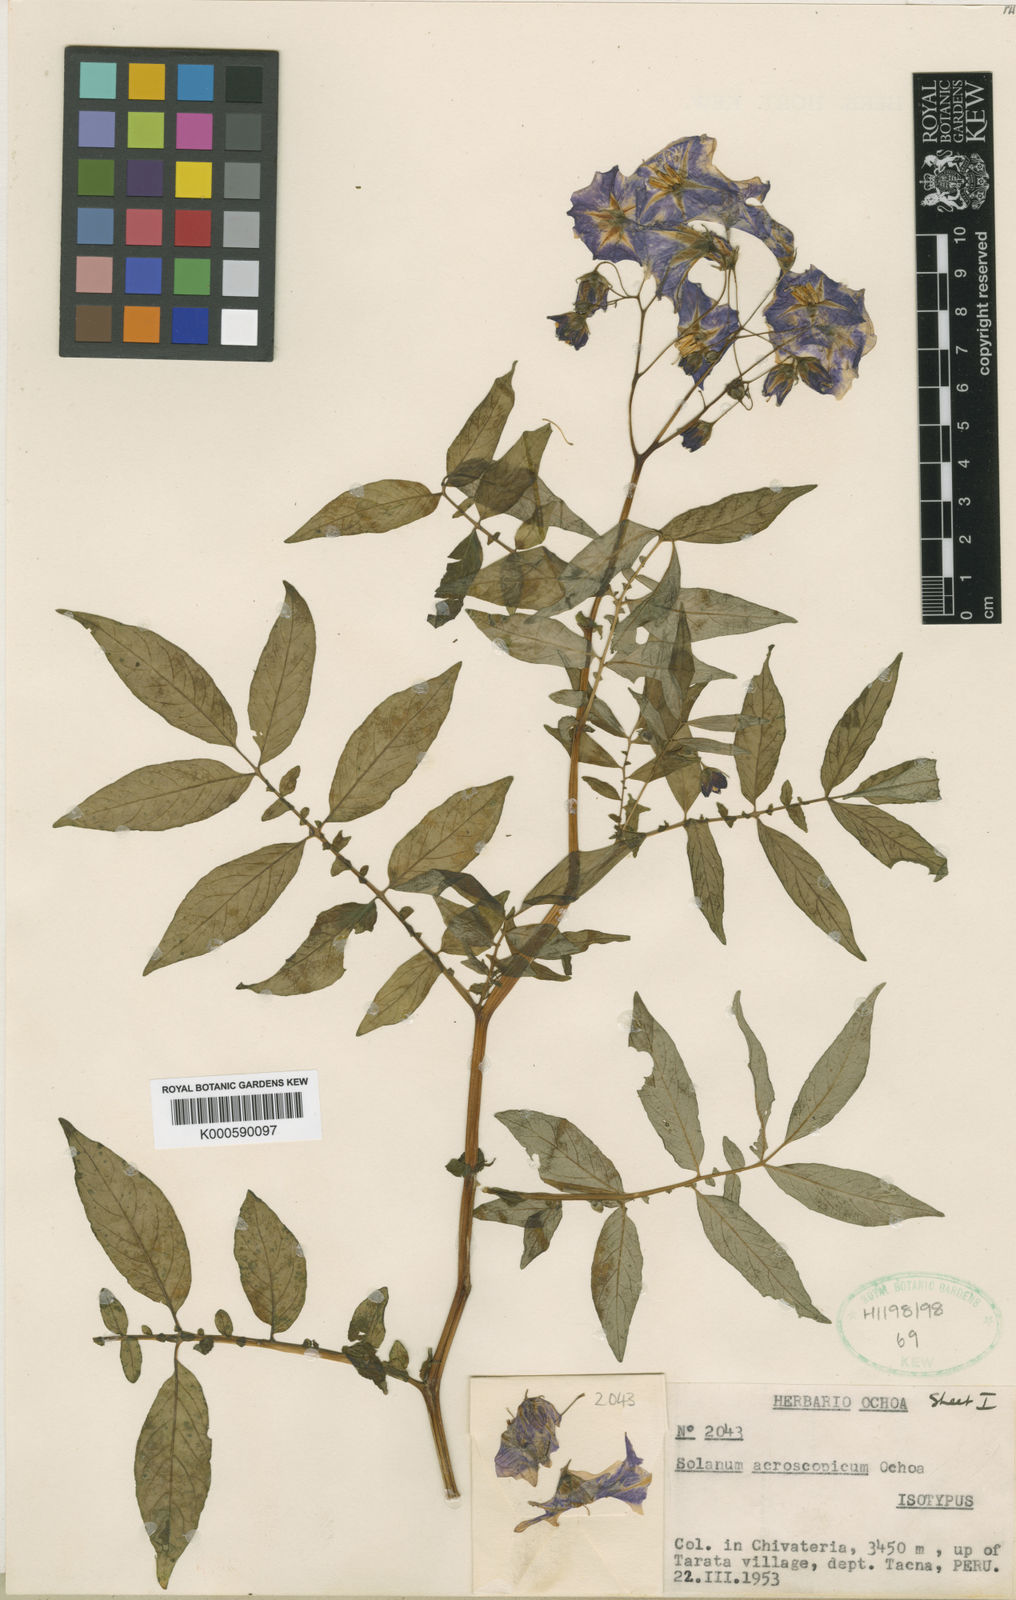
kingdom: Plantae
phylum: Tracheophyta
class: Magnoliopsida
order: Solanales
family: Solanaceae
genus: Solanum
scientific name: Solanum acroscopicum
